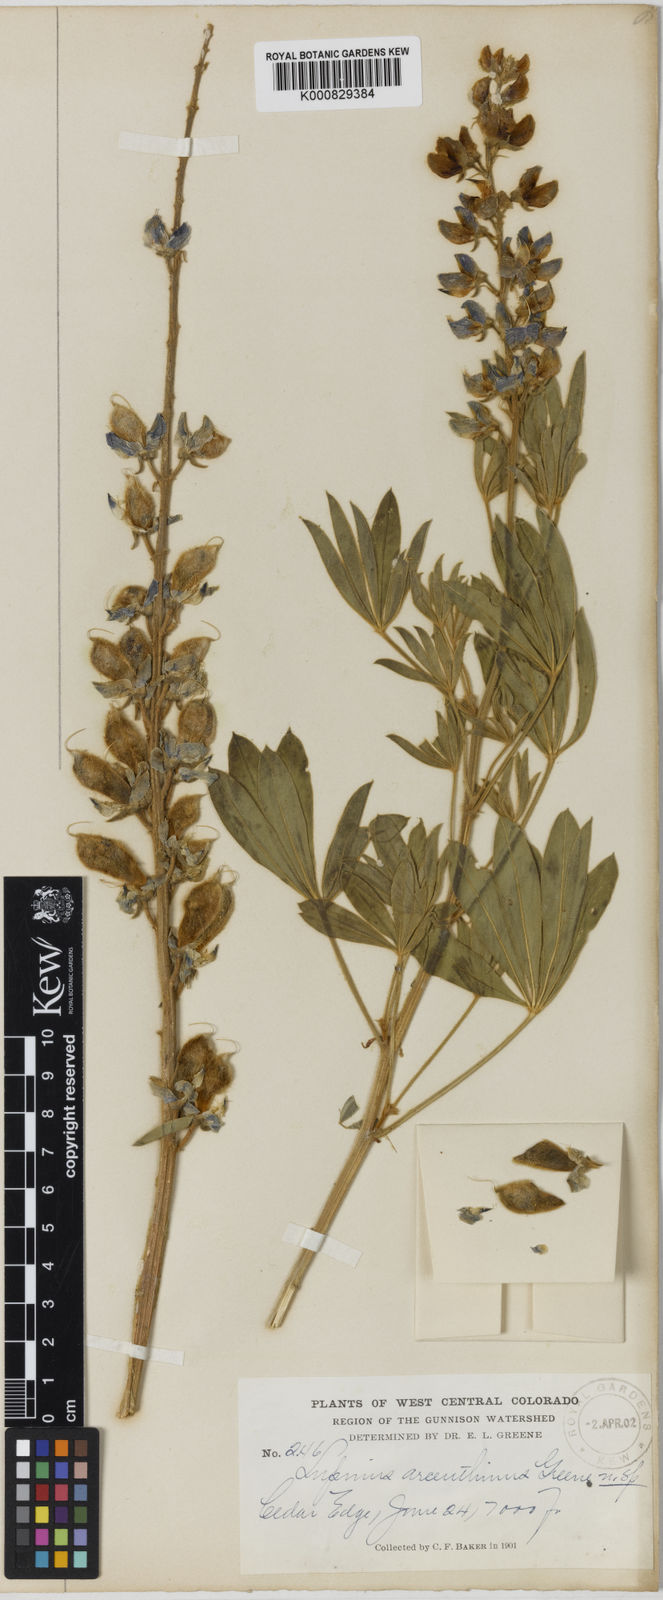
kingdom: Plantae
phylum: Tracheophyta
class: Magnoliopsida
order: Fabales
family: Fabaceae
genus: Lupinus
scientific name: Lupinus sericeus
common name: Silky lupine
